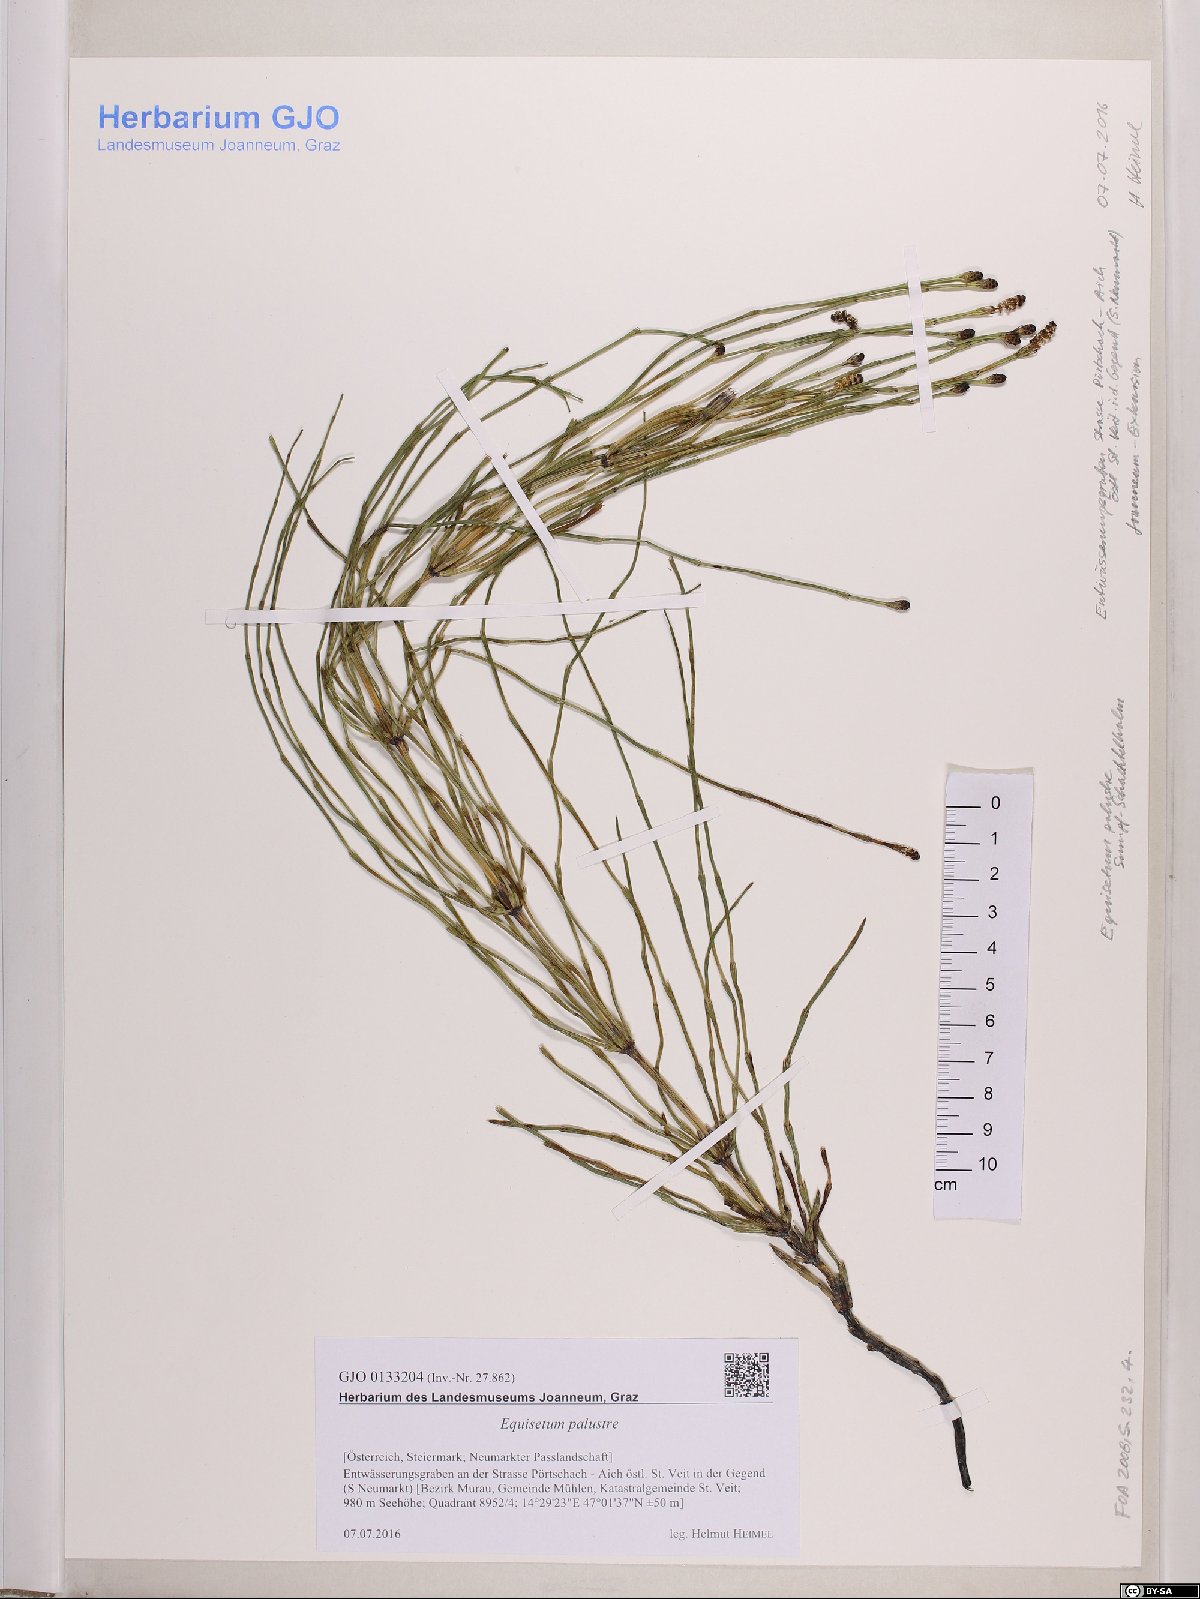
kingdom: Plantae
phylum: Tracheophyta
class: Polypodiopsida
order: Equisetales
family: Equisetaceae
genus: Equisetum
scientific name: Equisetum palustre
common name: Marsh horsetail
